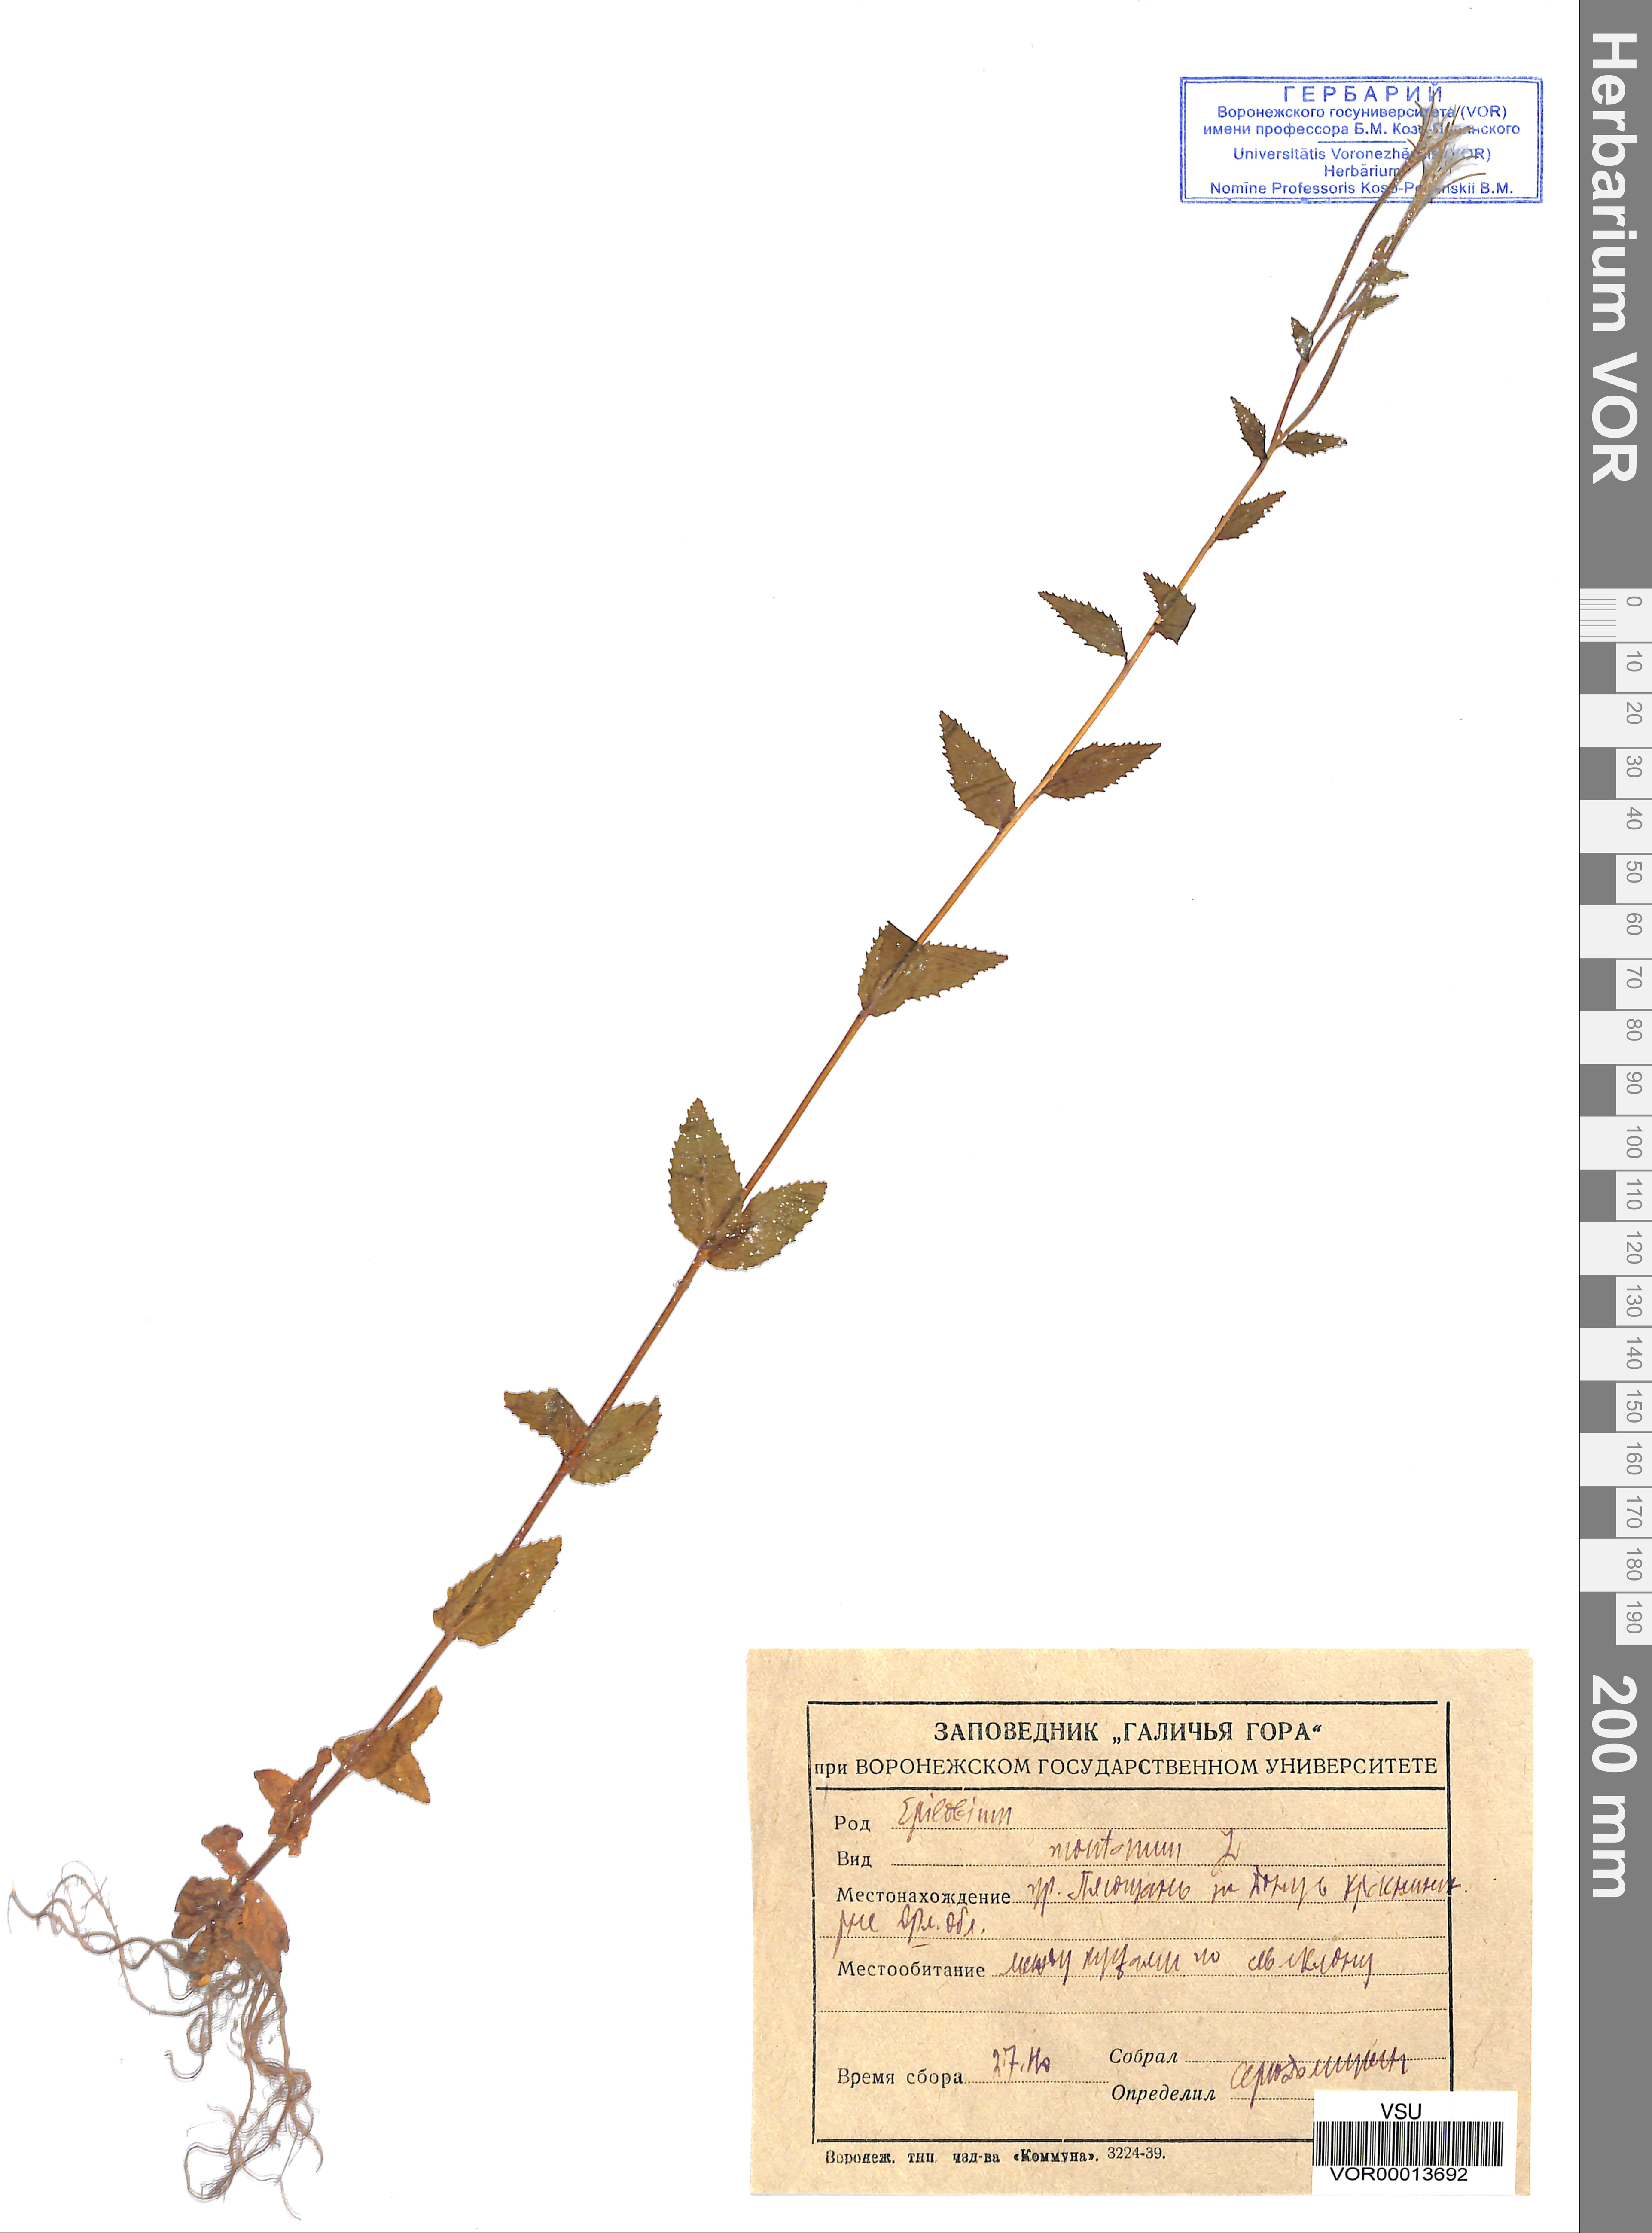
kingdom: Plantae
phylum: Tracheophyta
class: Magnoliopsida
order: Myrtales
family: Onagraceae
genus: Epilobium
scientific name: Epilobium montanum
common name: Broad-leaved willowherb
